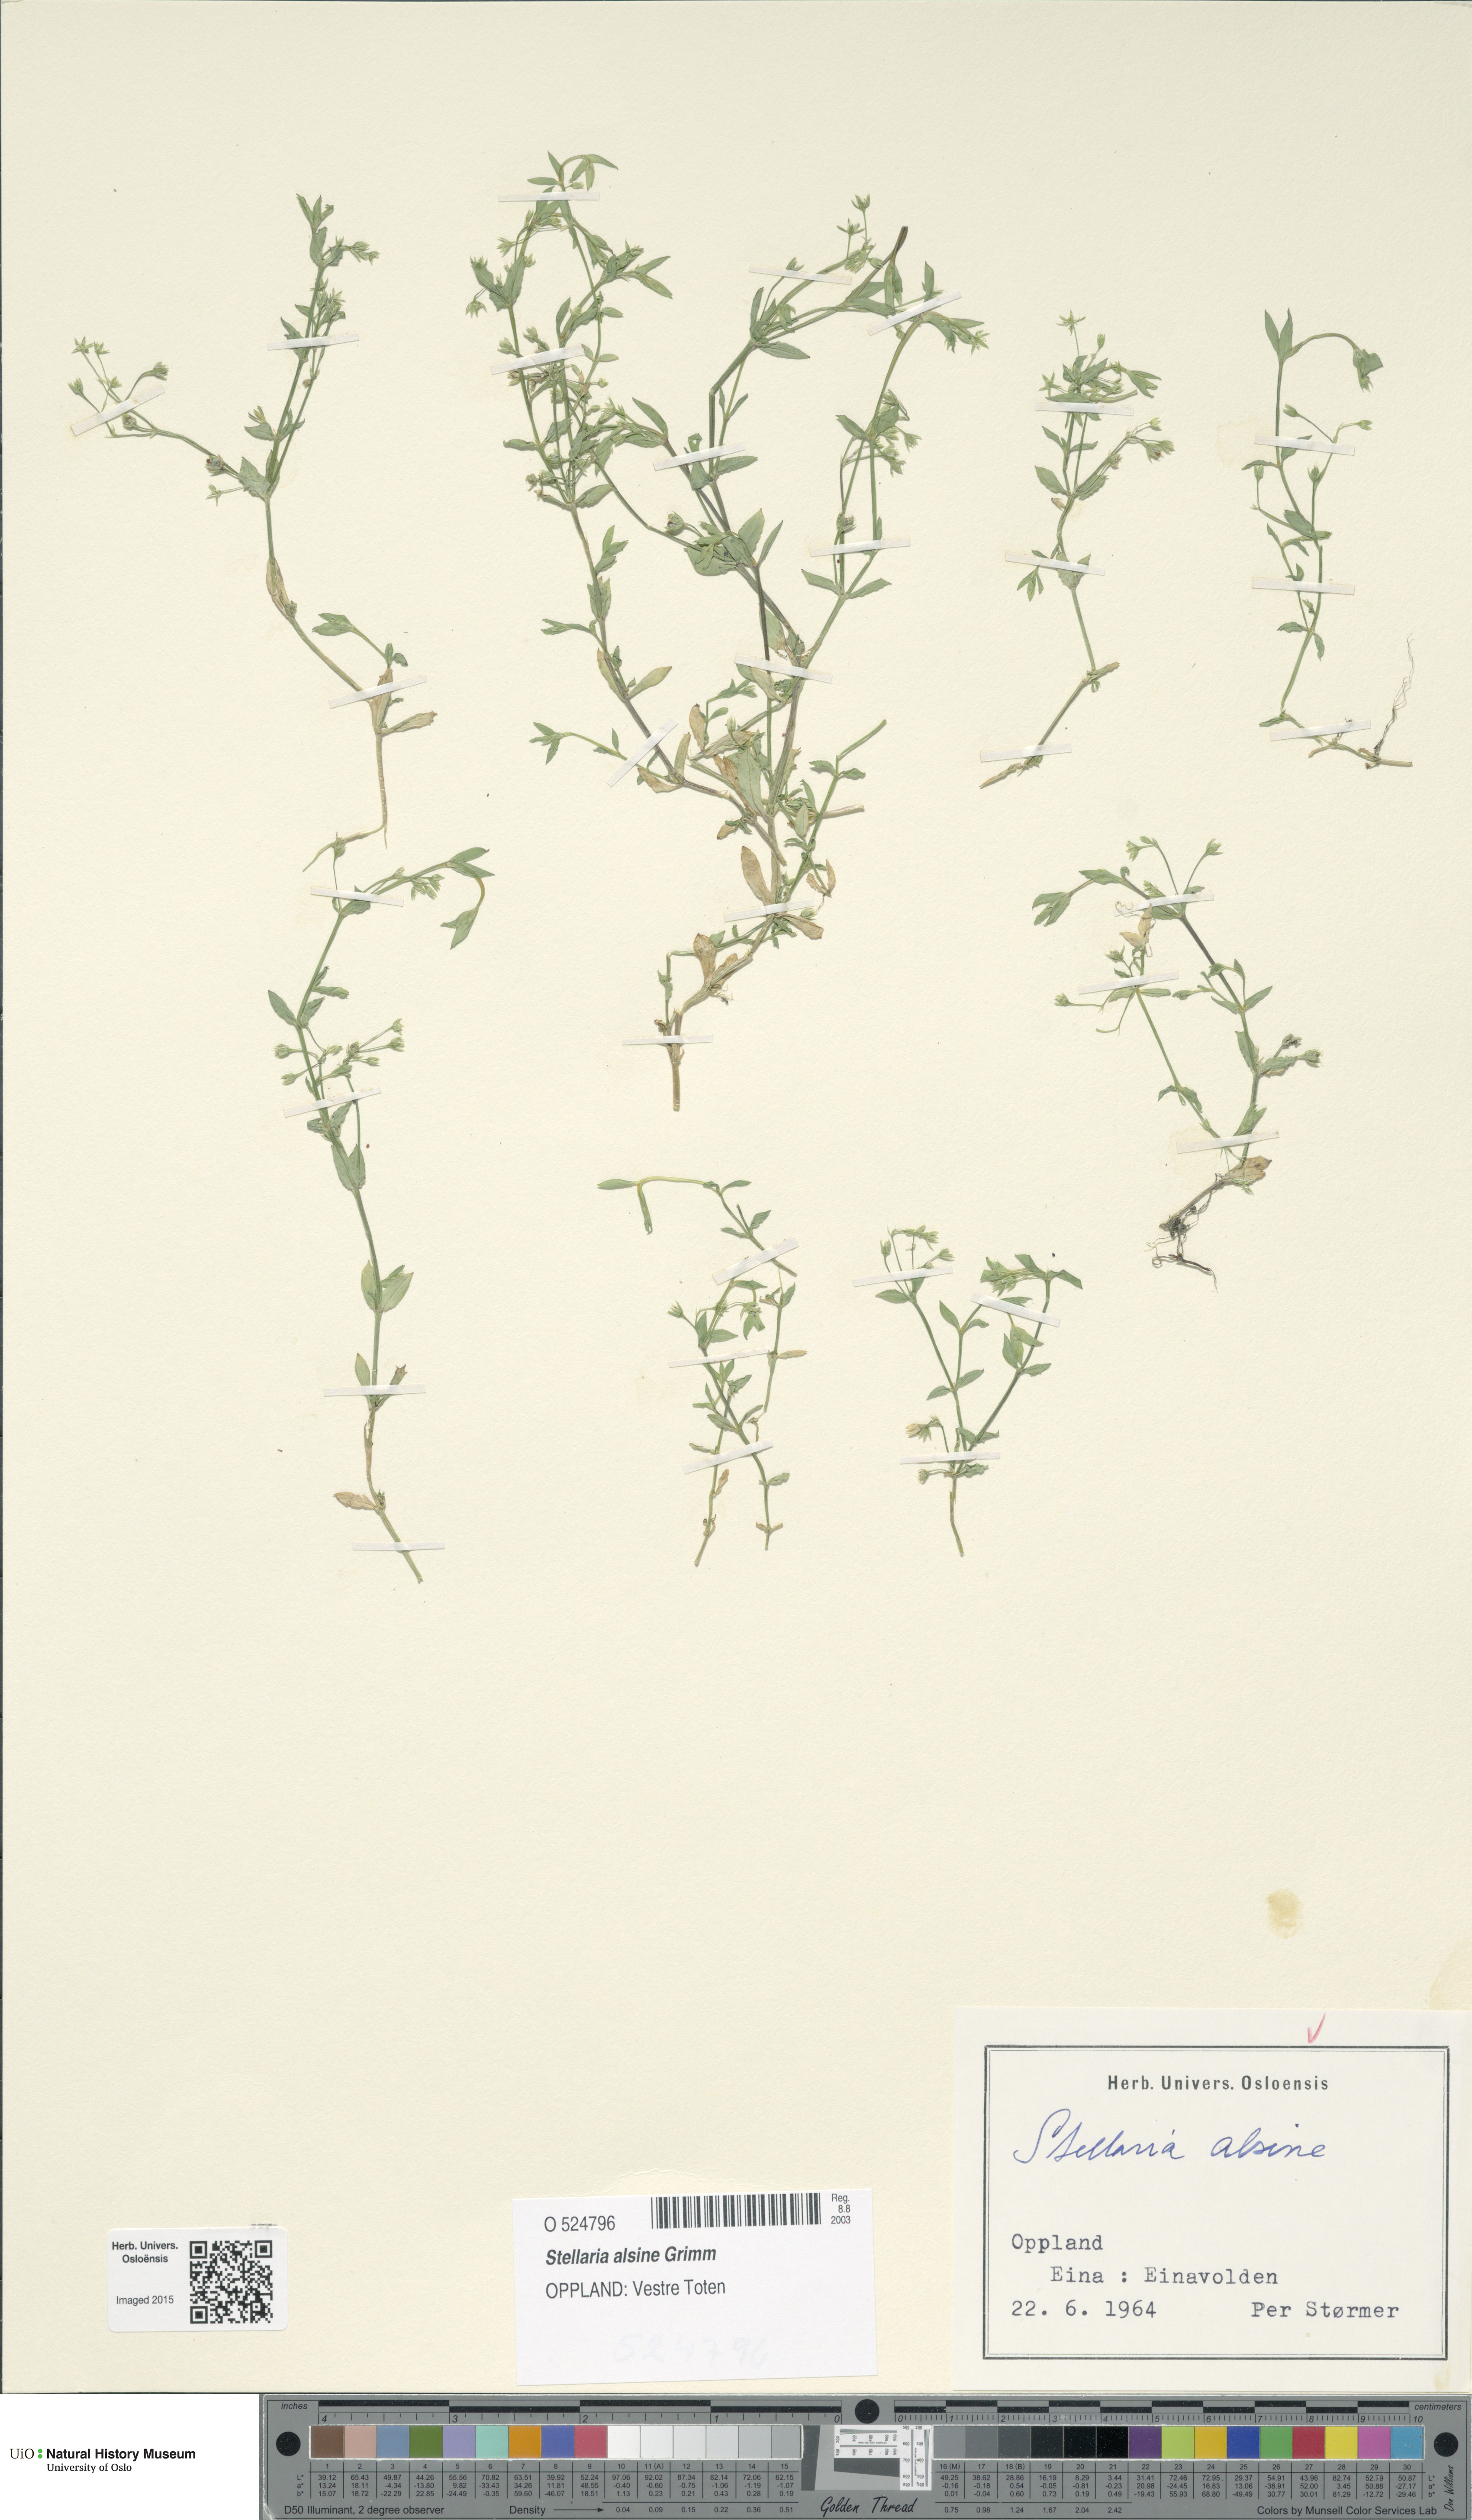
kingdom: Plantae
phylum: Tracheophyta
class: Magnoliopsida
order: Caryophyllales
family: Caryophyllaceae
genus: Stellaria
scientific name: Stellaria alsine
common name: Bog stitchwort
